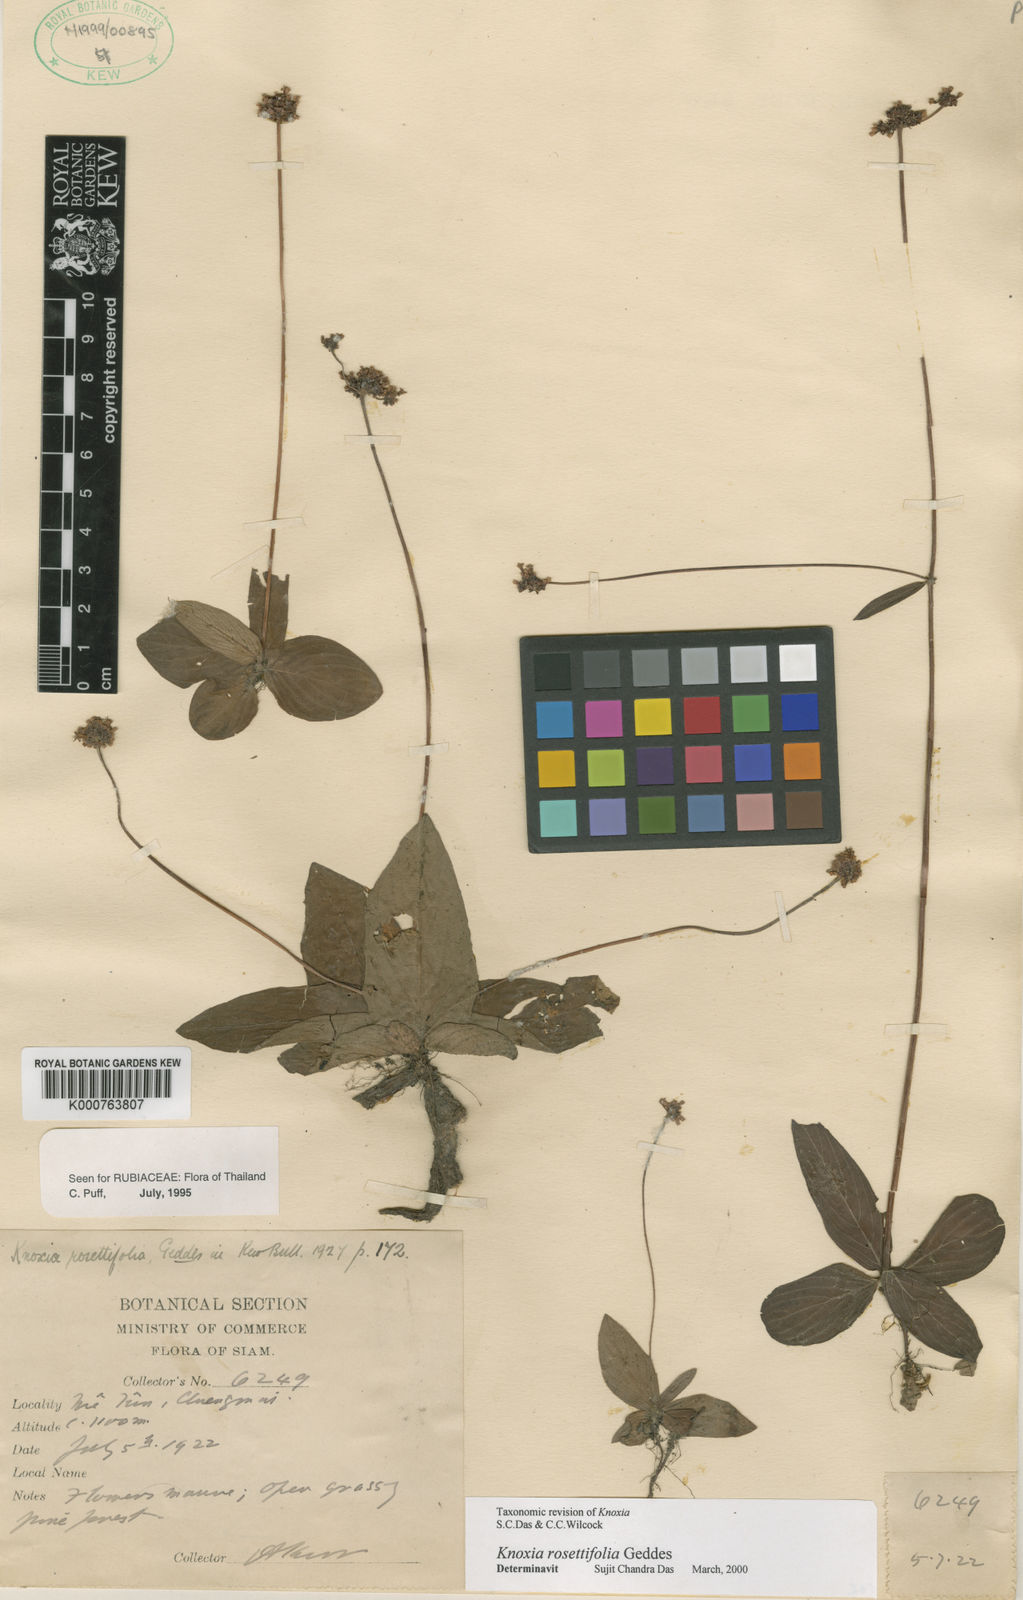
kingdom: Plantae
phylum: Tracheophyta
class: Magnoliopsida
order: Gentianales
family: Rubiaceae
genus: Knoxia
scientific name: Knoxia rosettifolia
